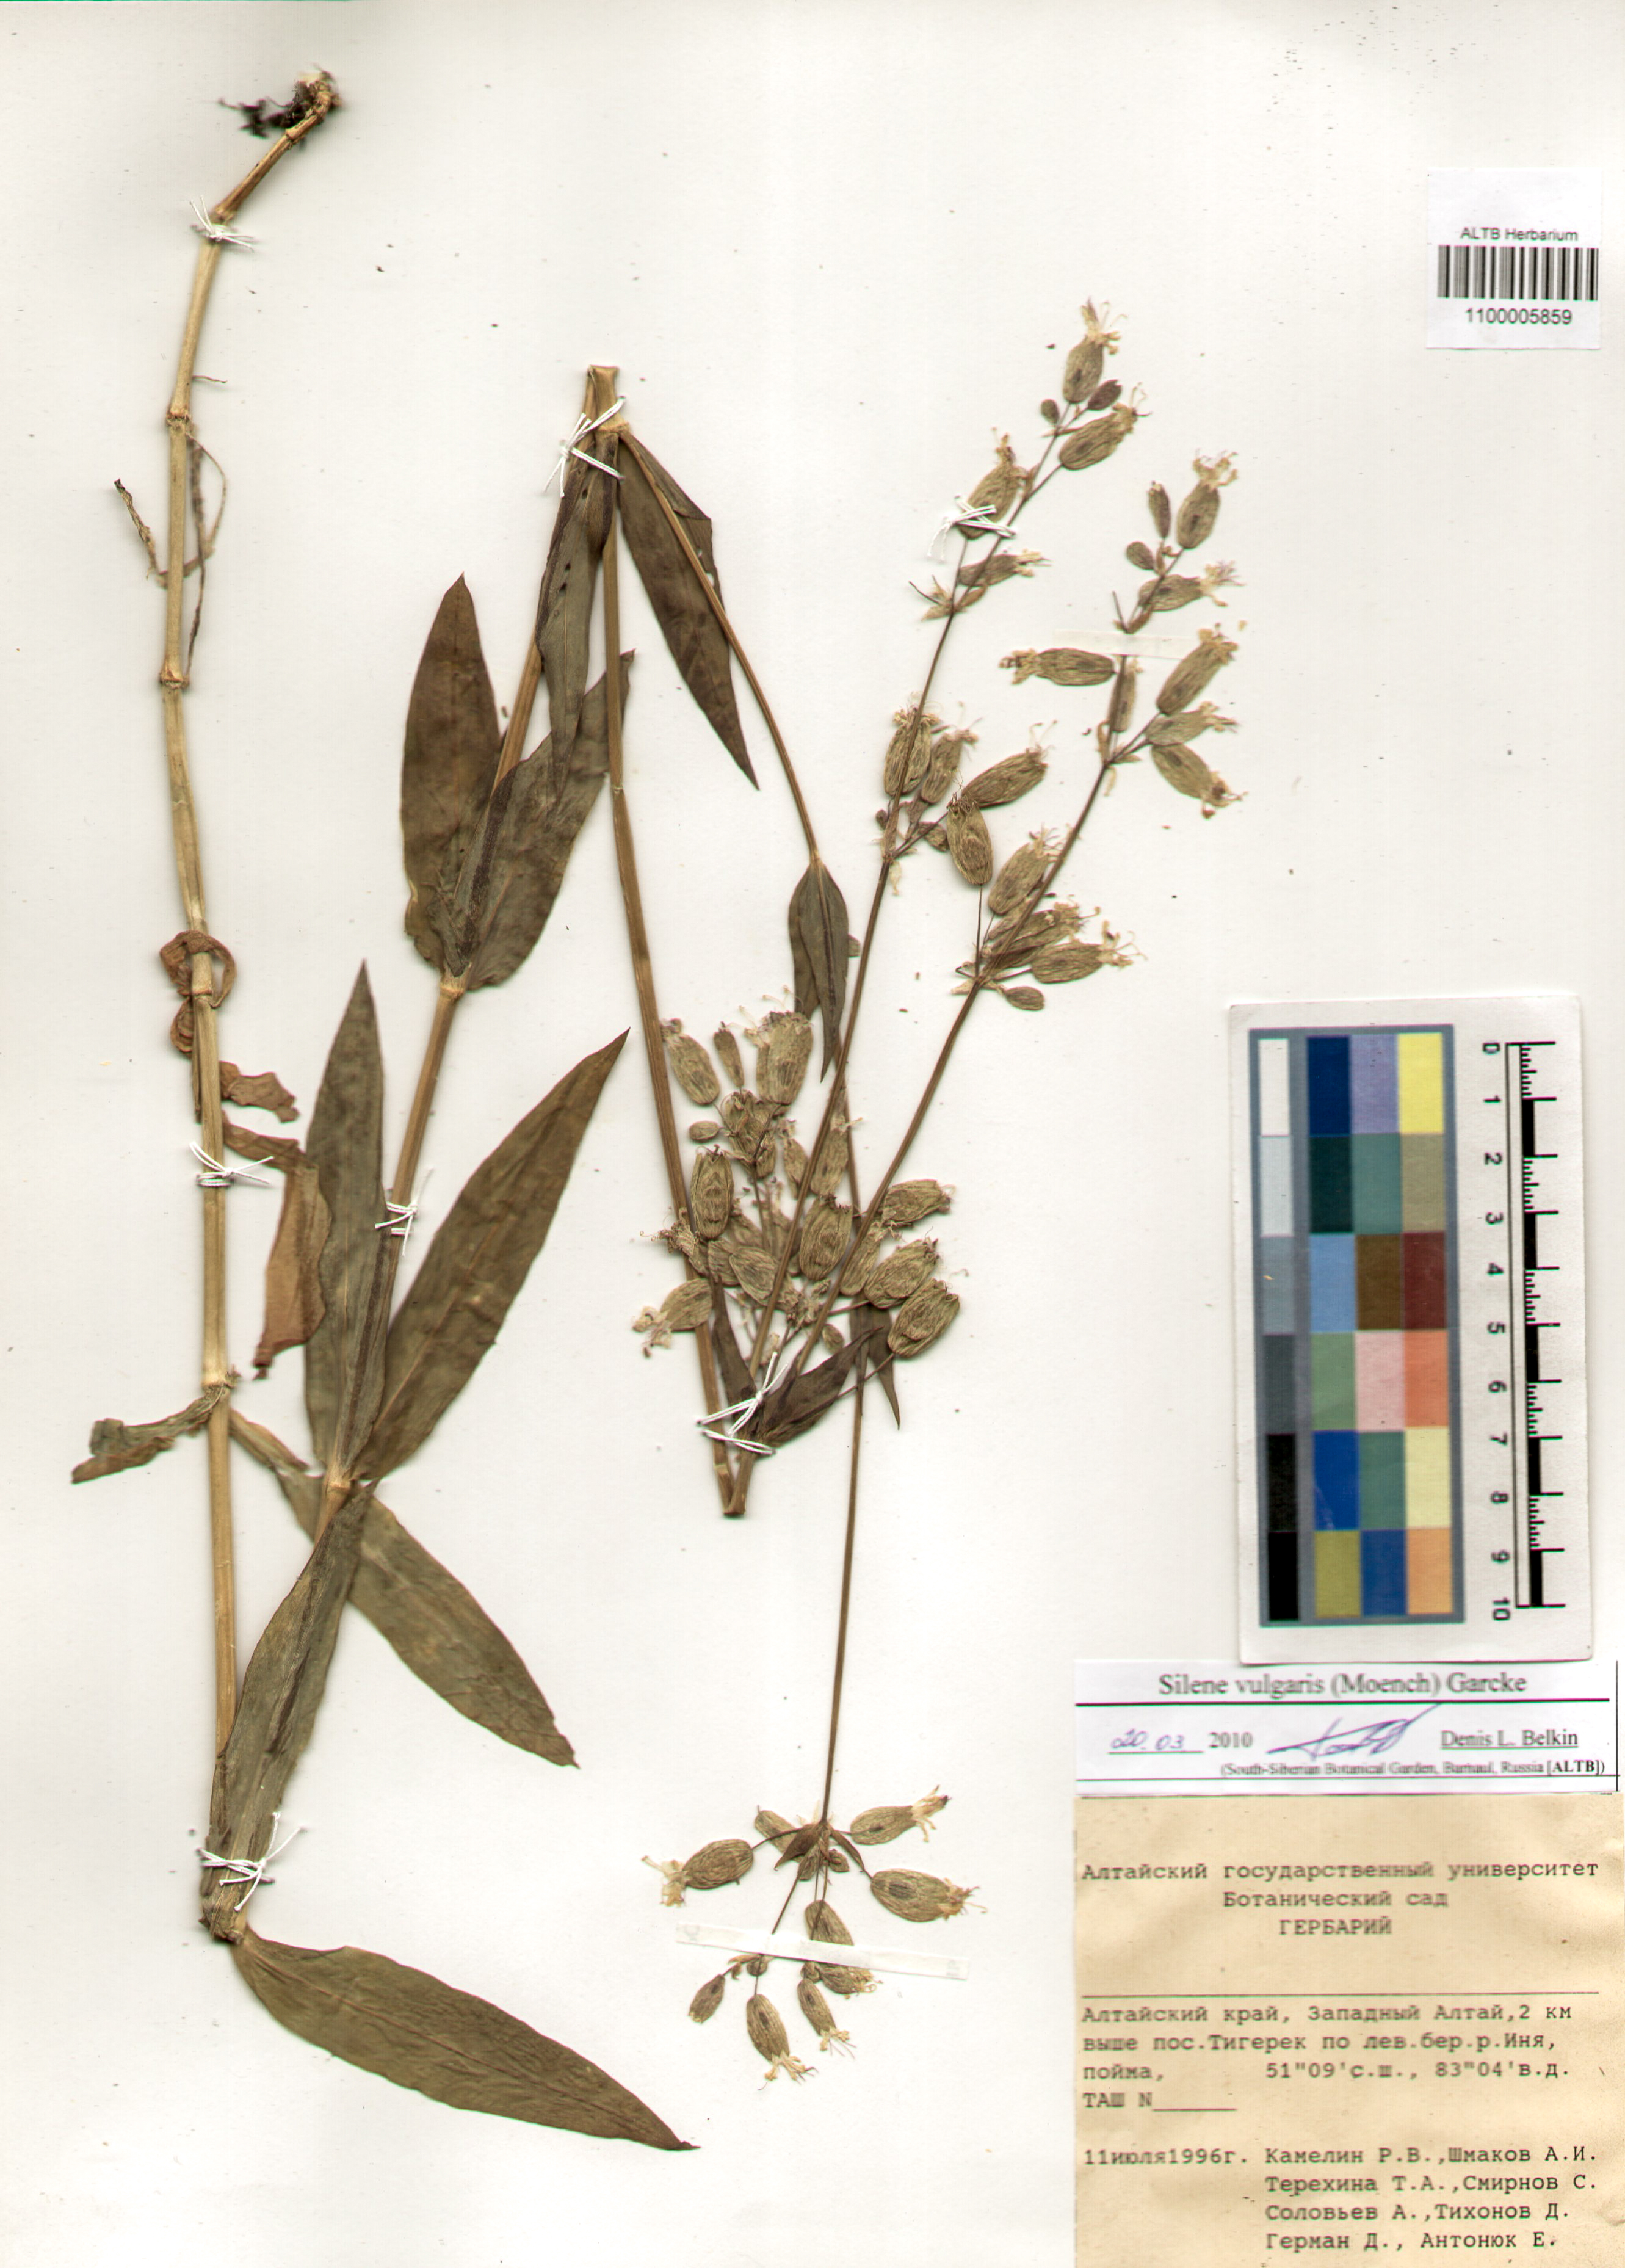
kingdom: Plantae
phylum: Tracheophyta
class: Magnoliopsida
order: Caryophyllales
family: Caryophyllaceae
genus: Silene
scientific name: Silene vulgaris
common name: Bladder campion
